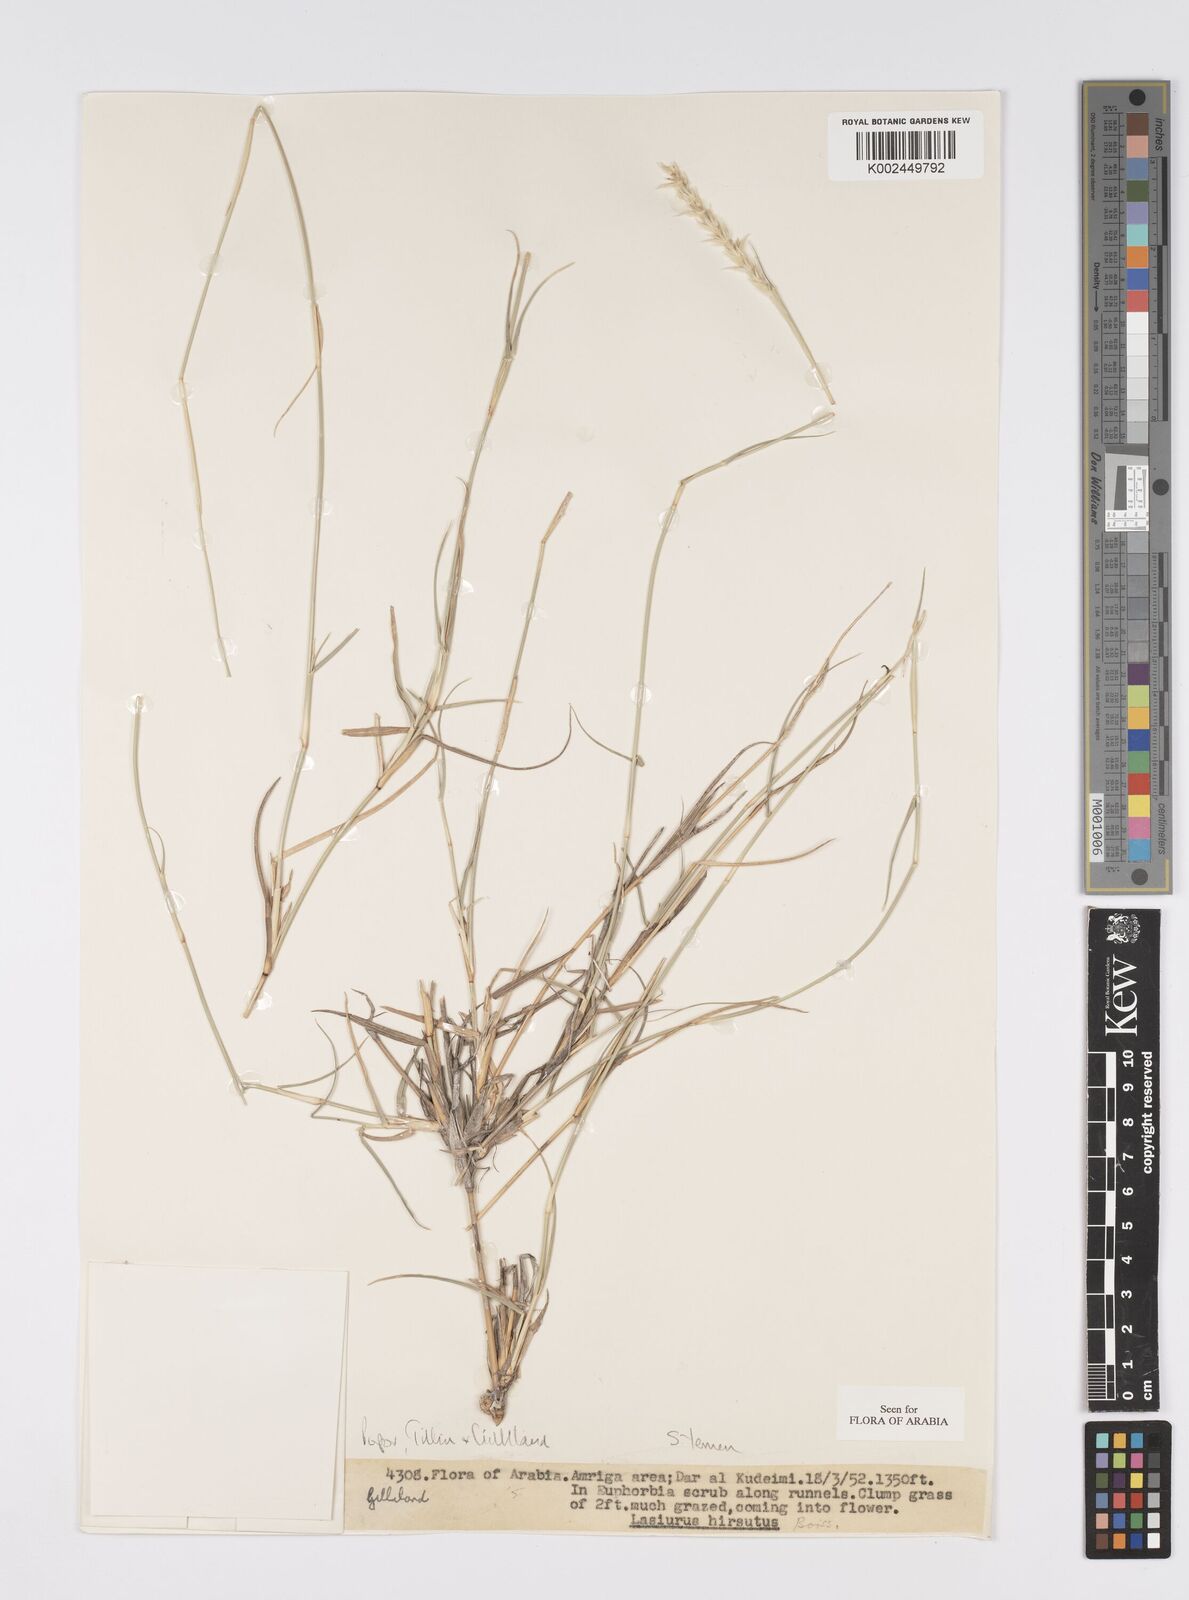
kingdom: Plantae
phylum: Tracheophyta
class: Liliopsida
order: Poales
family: Poaceae
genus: Lasiurus
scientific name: Lasiurus scindicus
